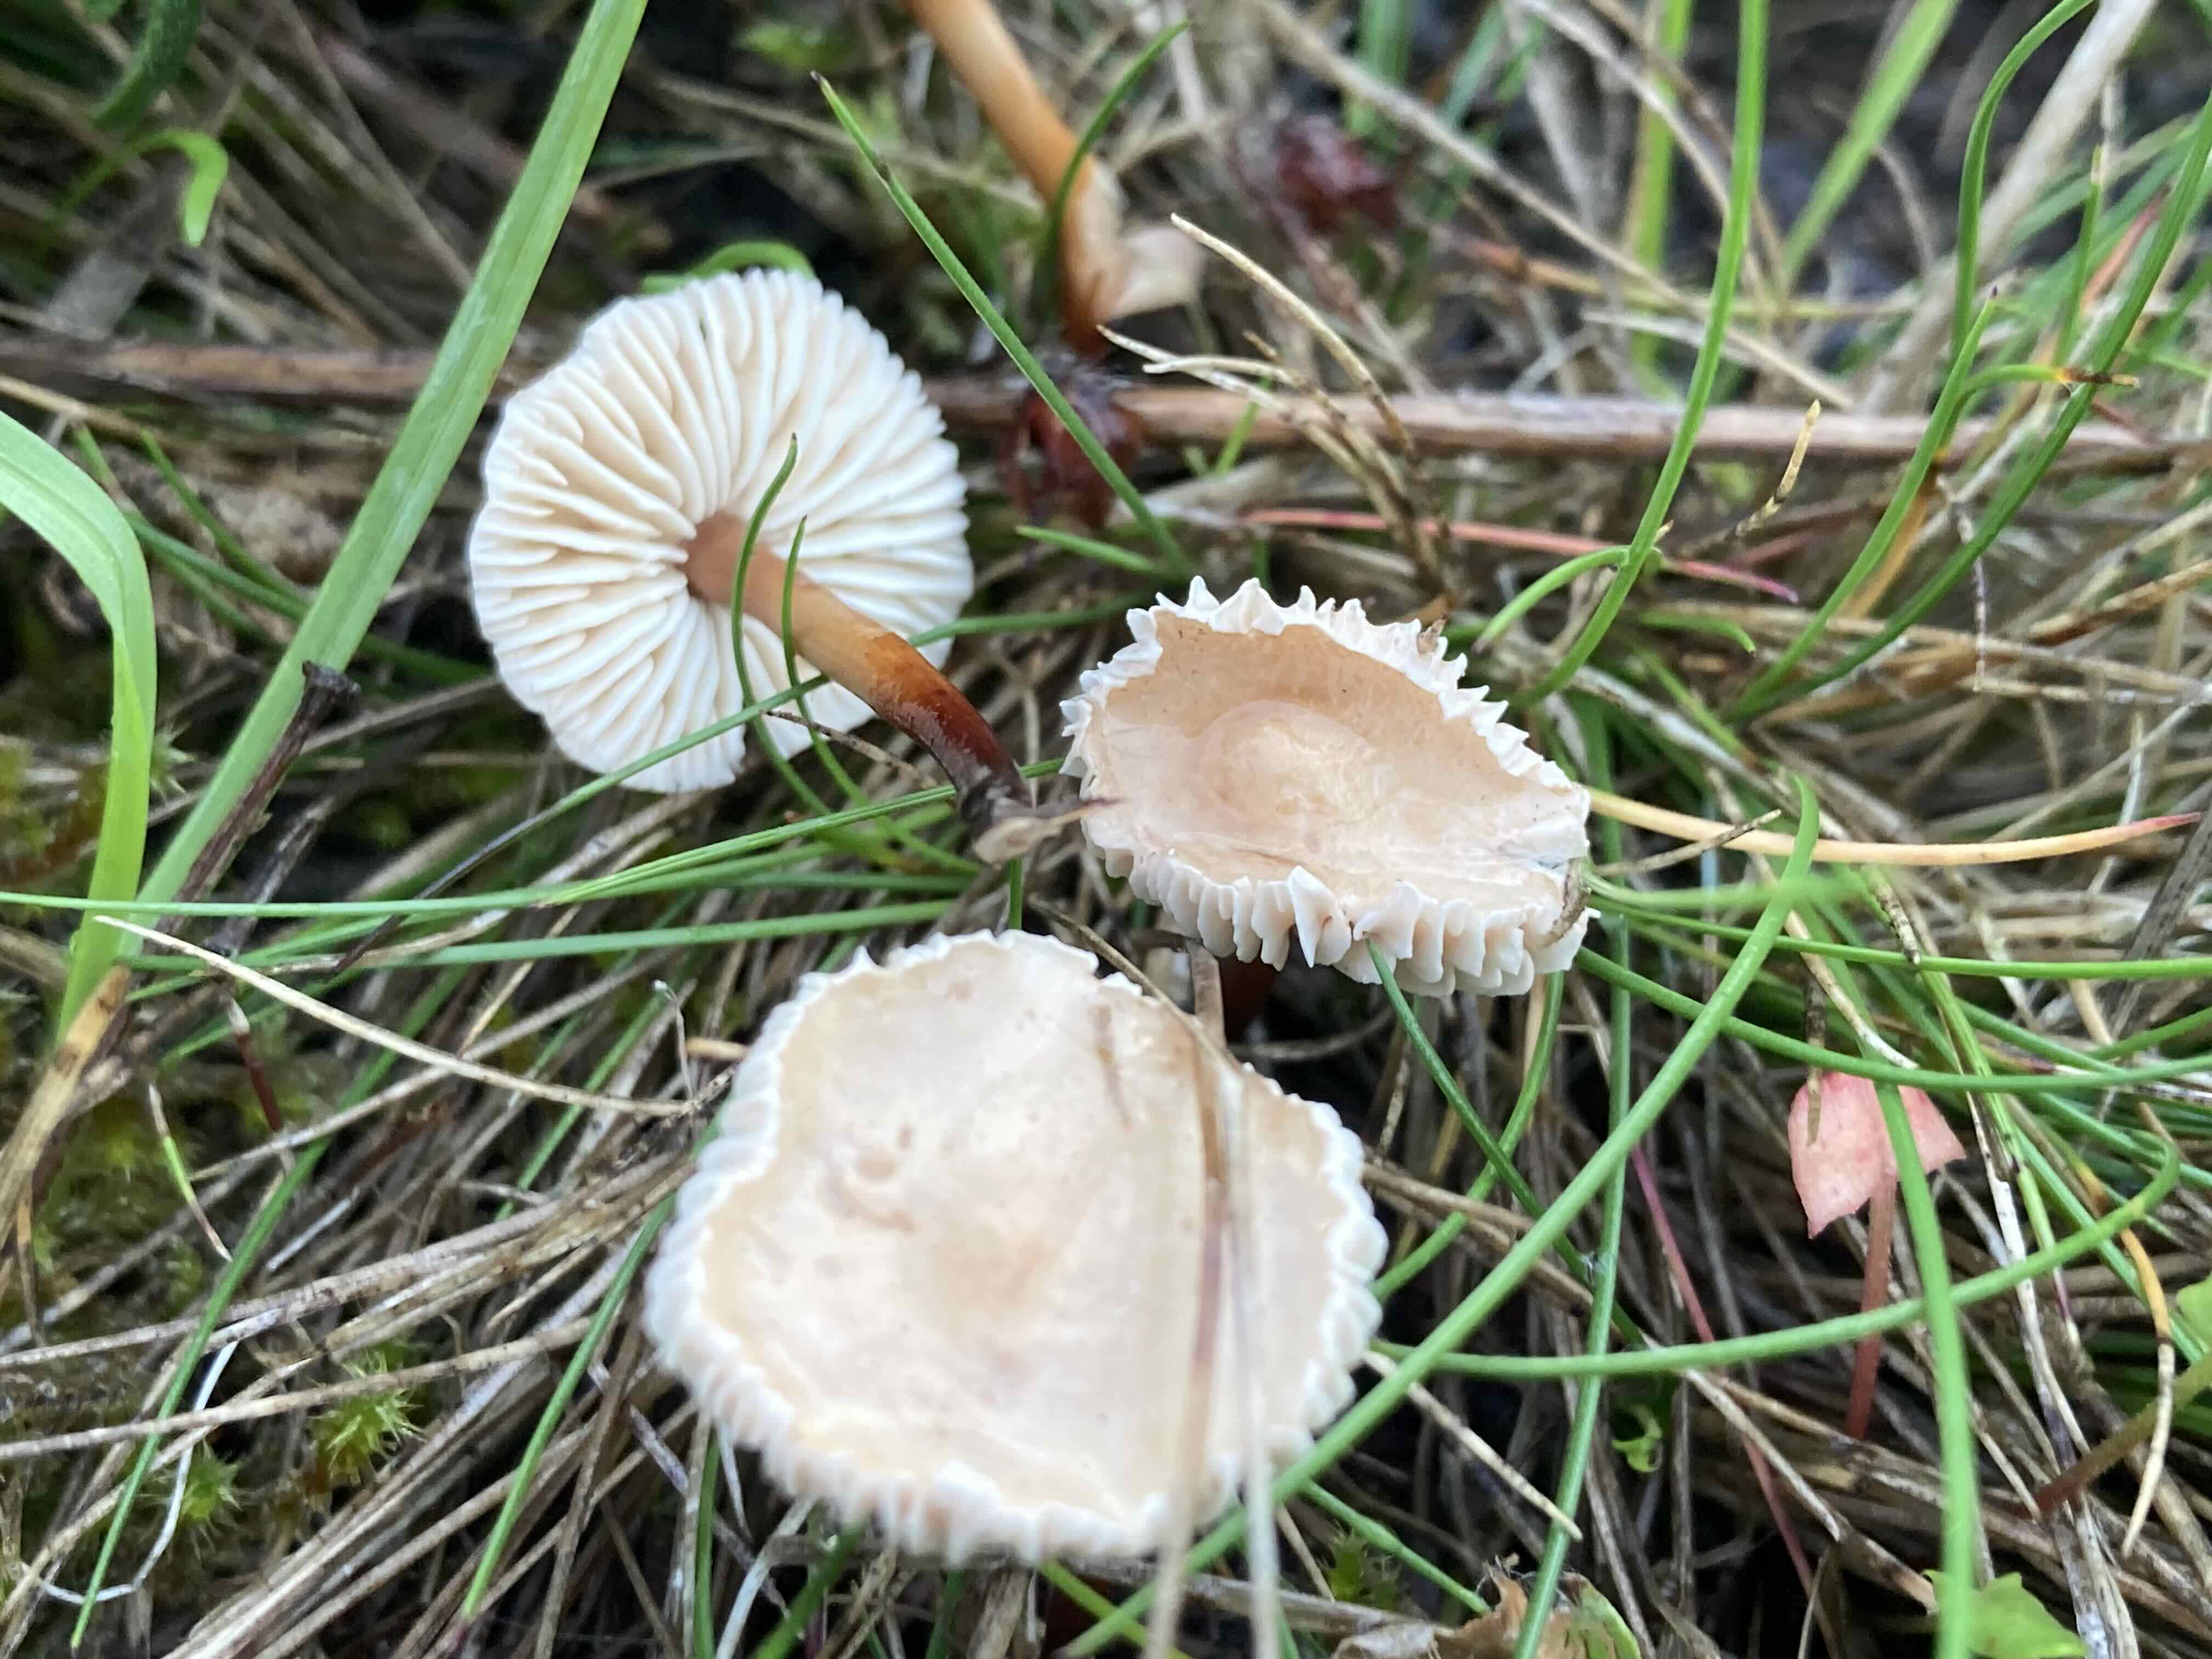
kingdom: Fungi
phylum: Basidiomycota
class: Agaricomycetes
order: Agaricales
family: Omphalotaceae
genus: Mycetinis
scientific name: Mycetinis scorodonius
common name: lille løghat
